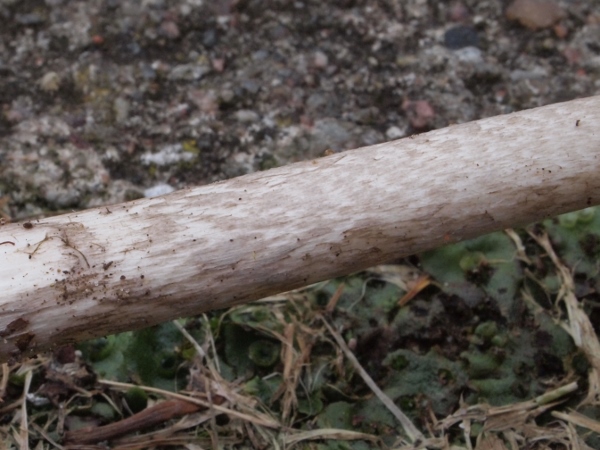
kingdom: Fungi
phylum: Basidiomycota
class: Agaricomycetes
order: Agaricales
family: Amanitaceae
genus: Amanita
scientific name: Amanita submembranacea
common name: gråspættet kam-fluesvamp
